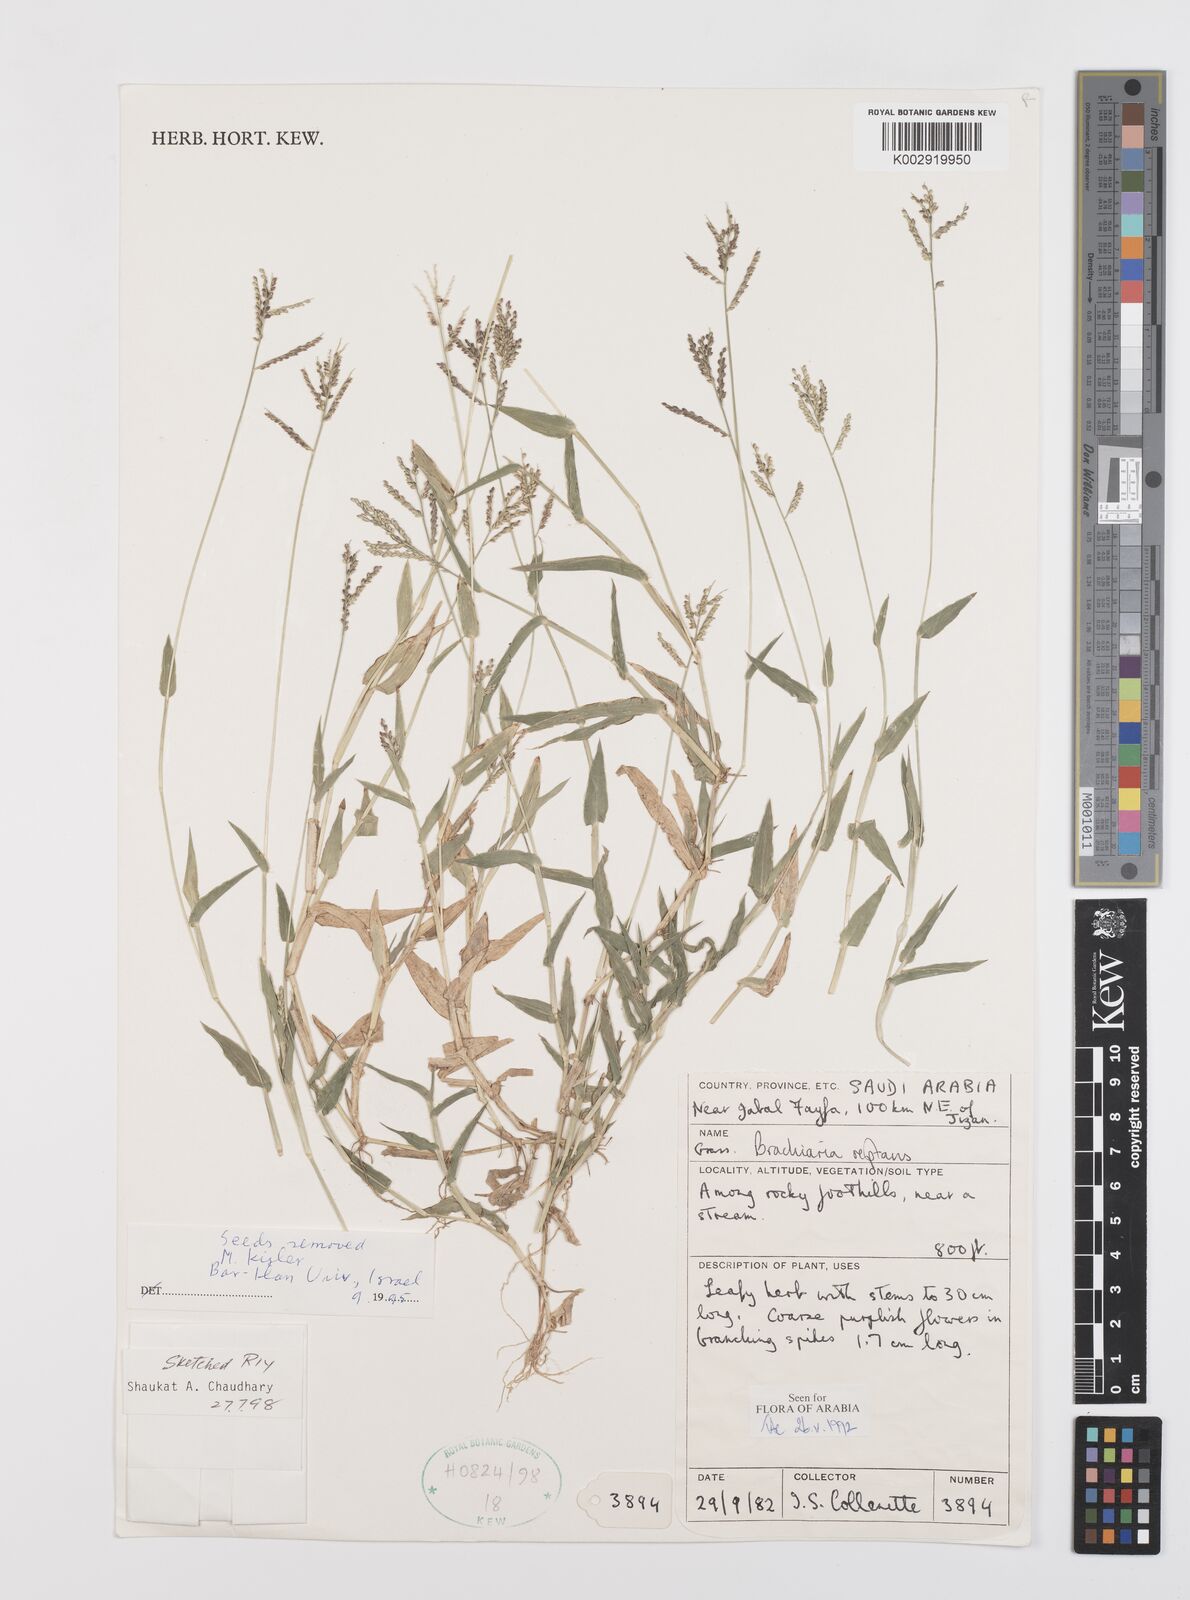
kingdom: Plantae
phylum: Tracheophyta
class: Liliopsida
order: Poales
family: Poaceae
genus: Urochloa
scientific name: Urochloa reptans
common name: Sprawling signalgrass
